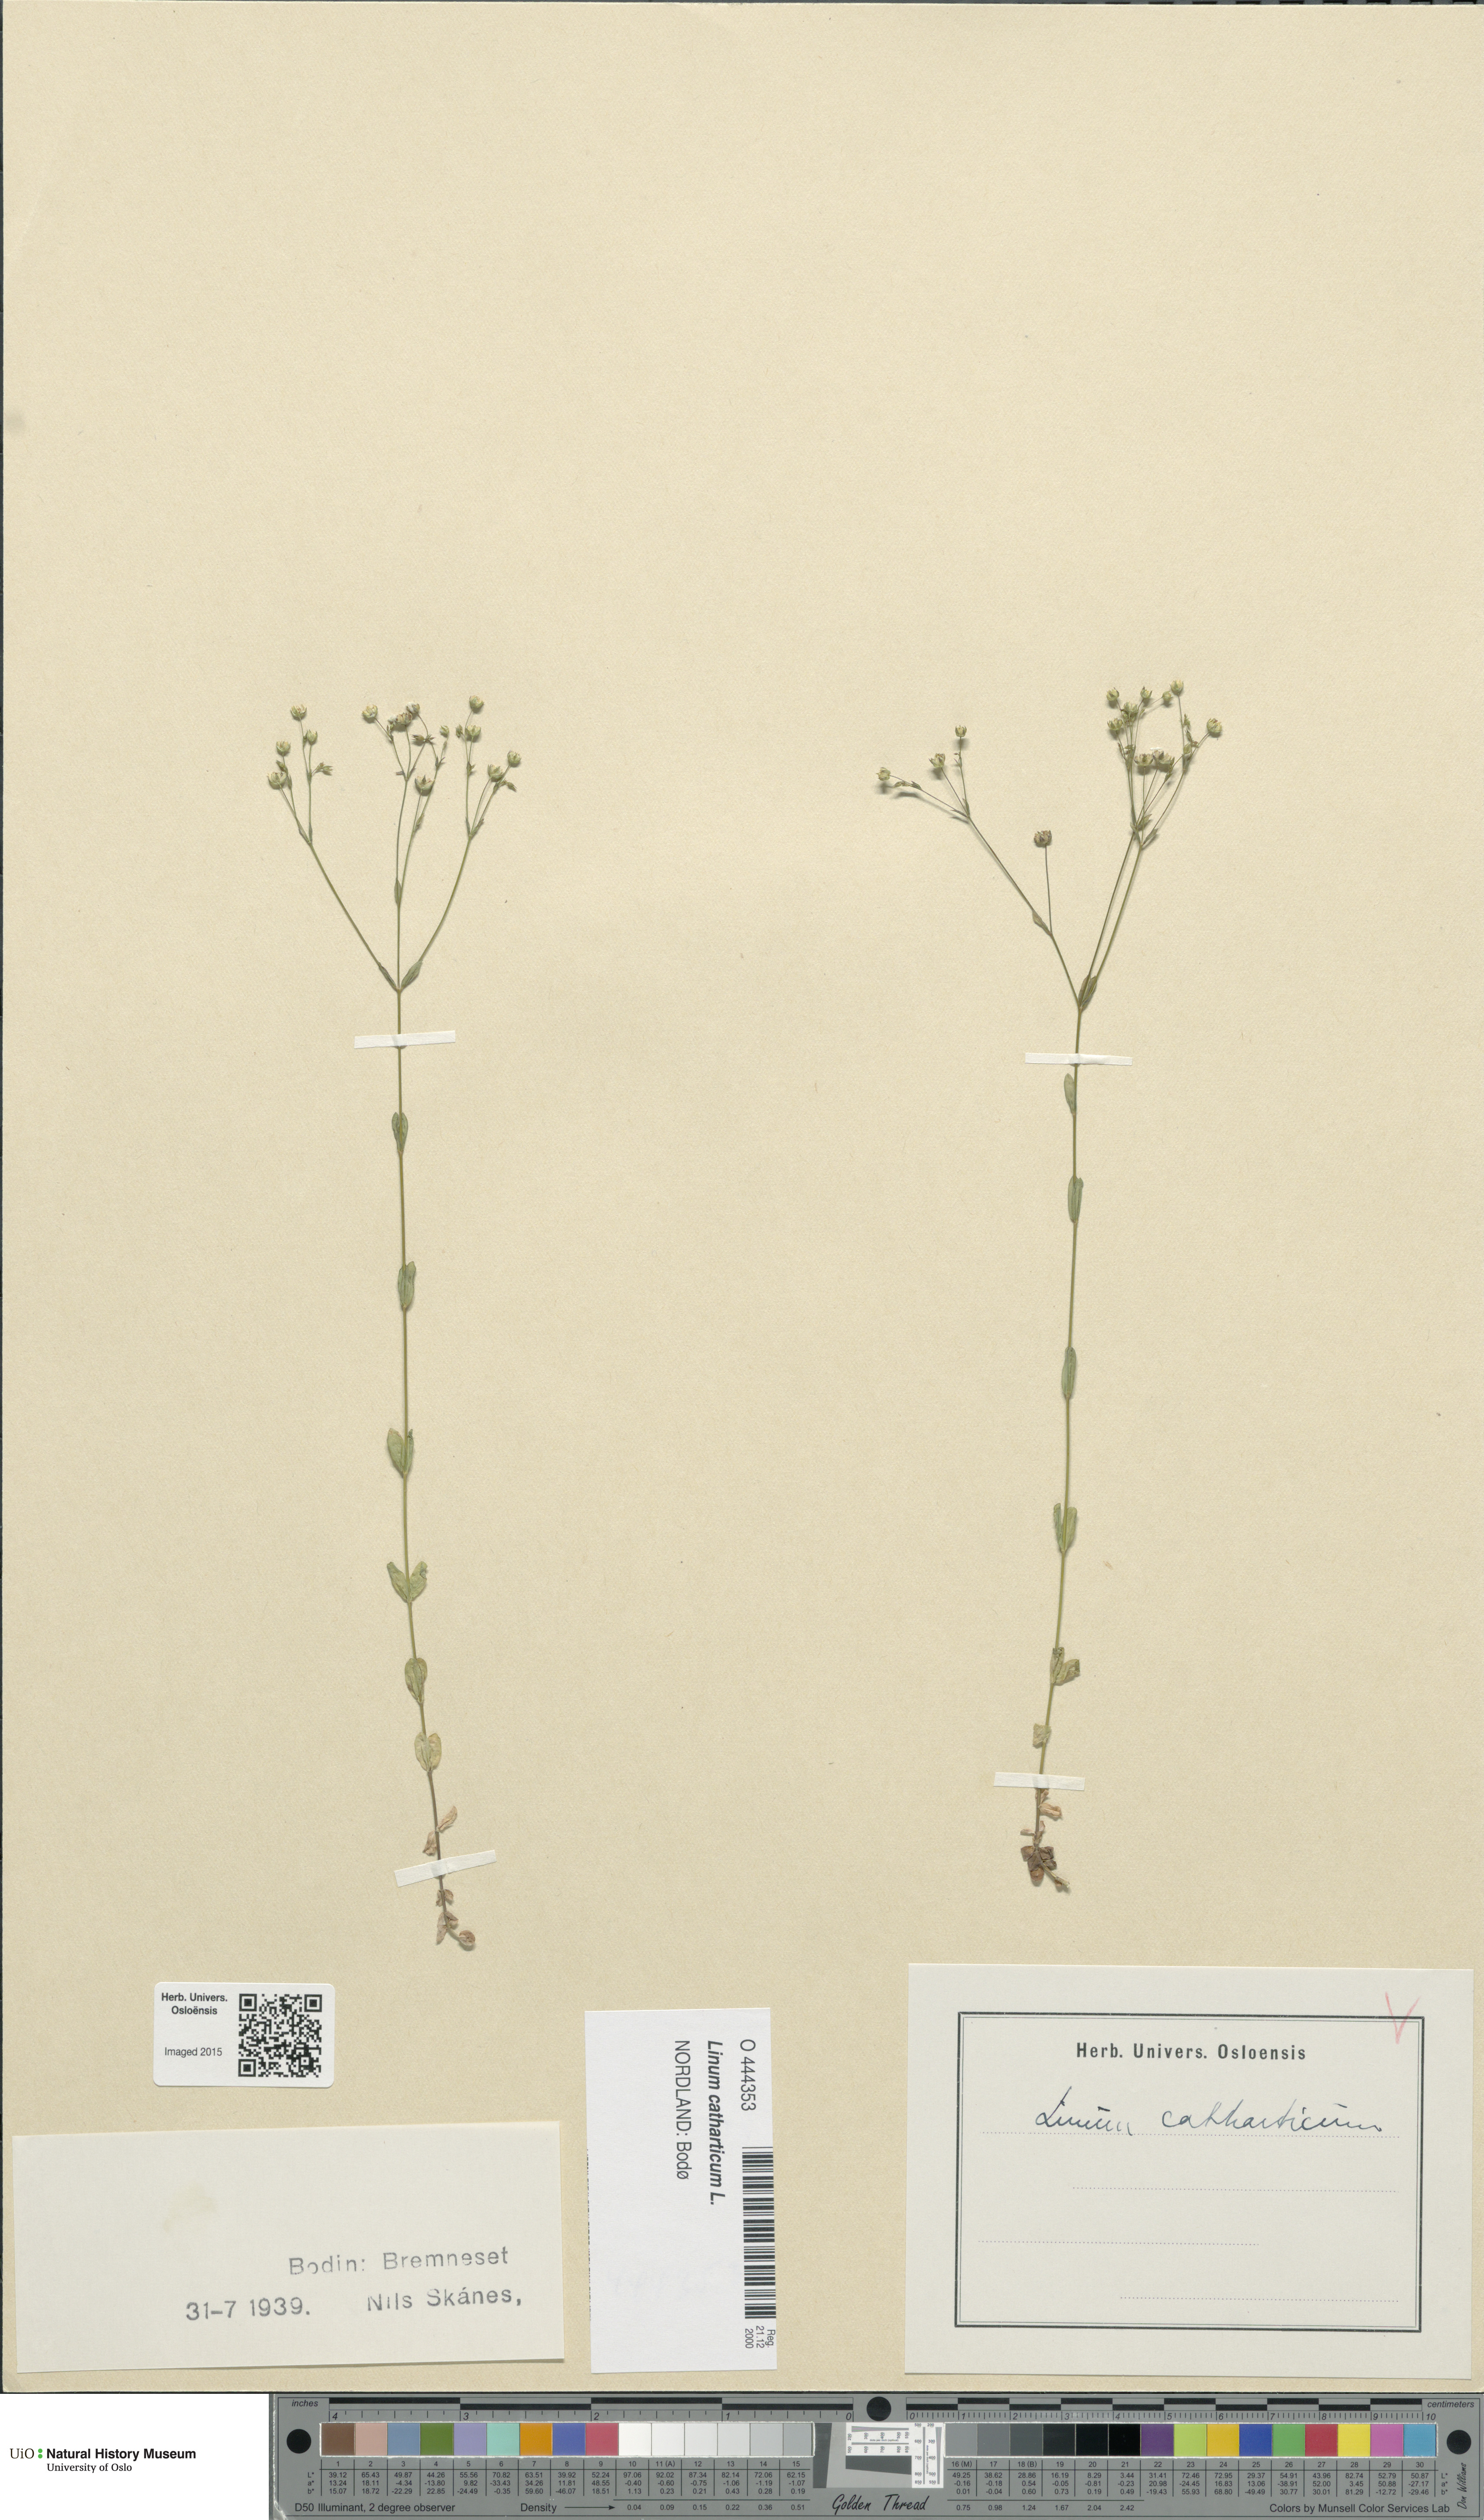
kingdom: Plantae
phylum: Tracheophyta
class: Magnoliopsida
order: Malpighiales
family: Linaceae
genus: Linum
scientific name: Linum catharticum
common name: Fairy flax
